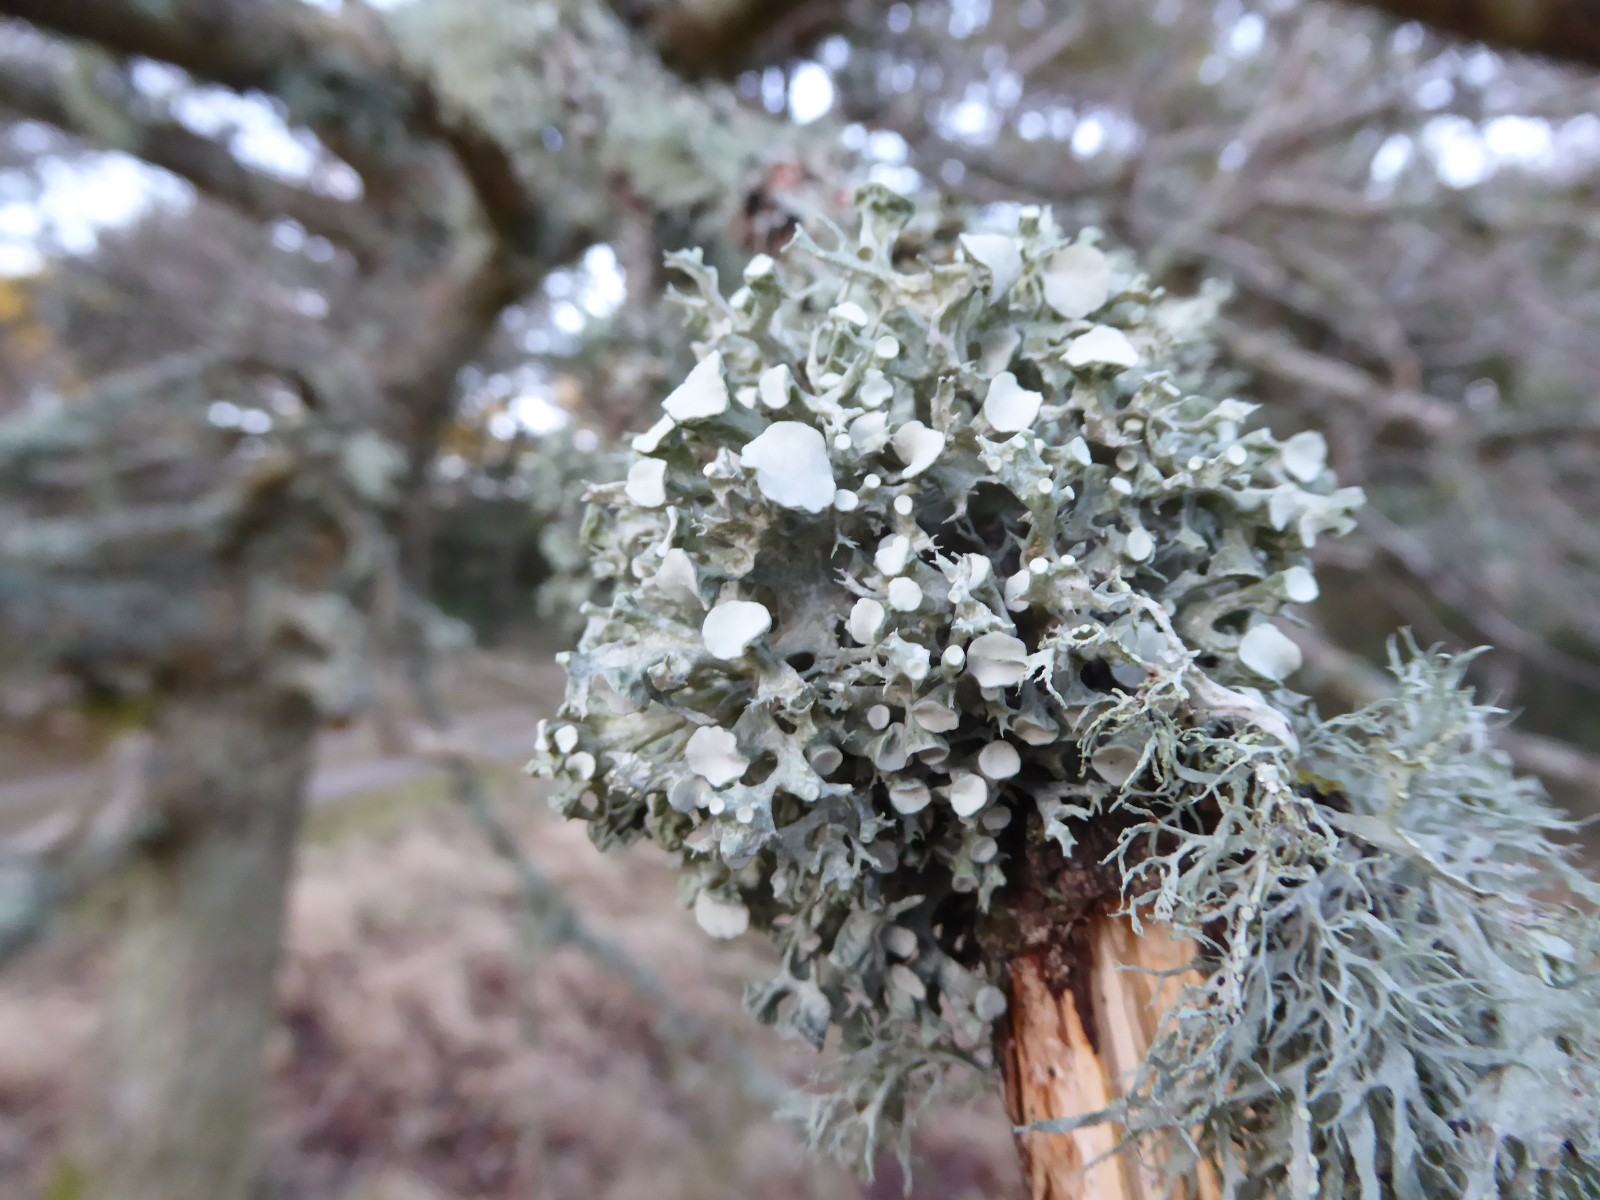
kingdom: Fungi
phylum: Ascomycota
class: Lecanoromycetes
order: Lecanorales
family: Ramalinaceae
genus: Ramalina
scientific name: Ramalina fastigiata
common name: tue-grenlav
